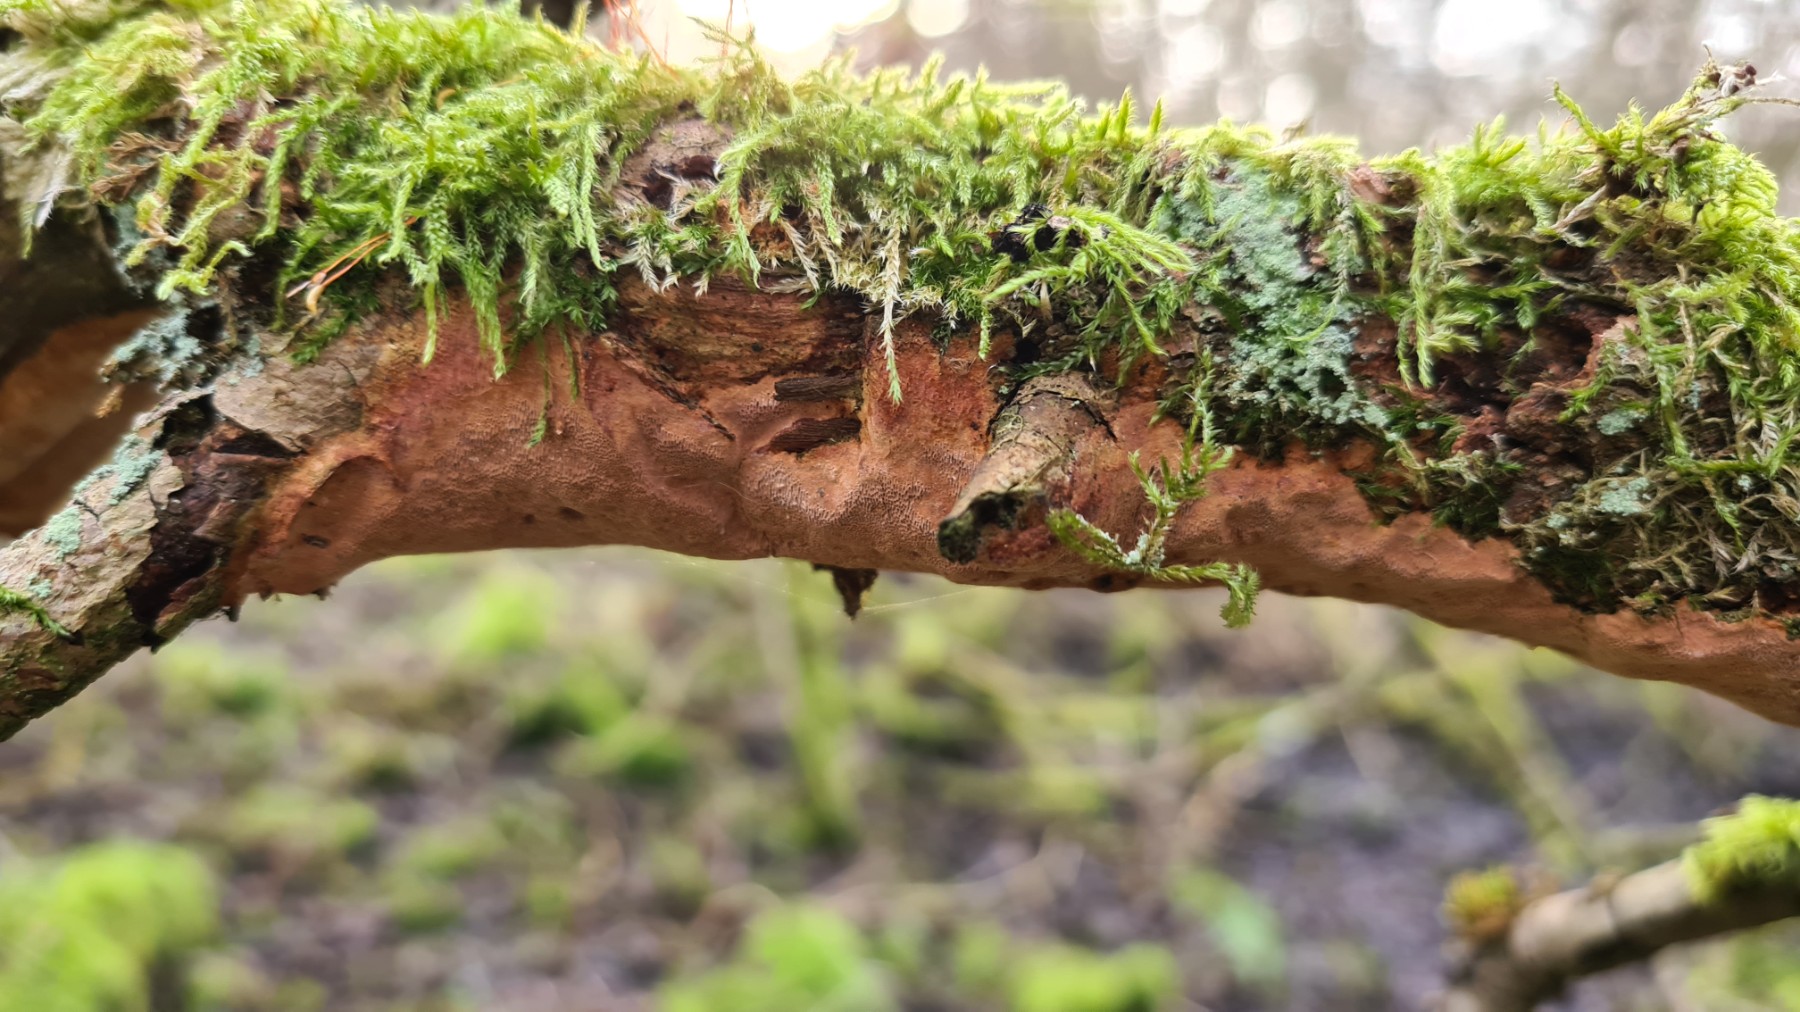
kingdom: Fungi
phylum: Basidiomycota
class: Agaricomycetes
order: Hymenochaetales
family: Hymenochaetaceae
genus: Fuscoporia
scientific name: Fuscoporia ferrea
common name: skorpe-ildporesvamp
